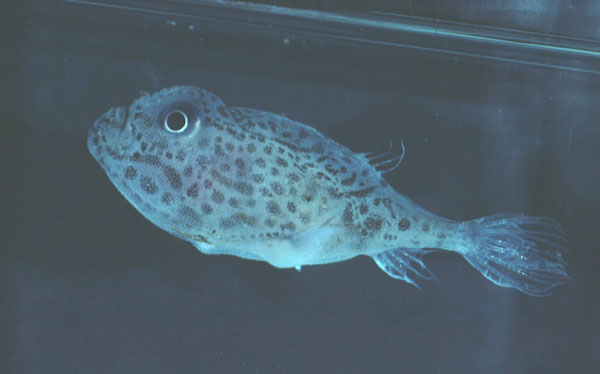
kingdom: Animalia
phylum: Chordata
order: Lophiiformes
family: Chaunacidae
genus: Chaunax
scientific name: Chaunax
